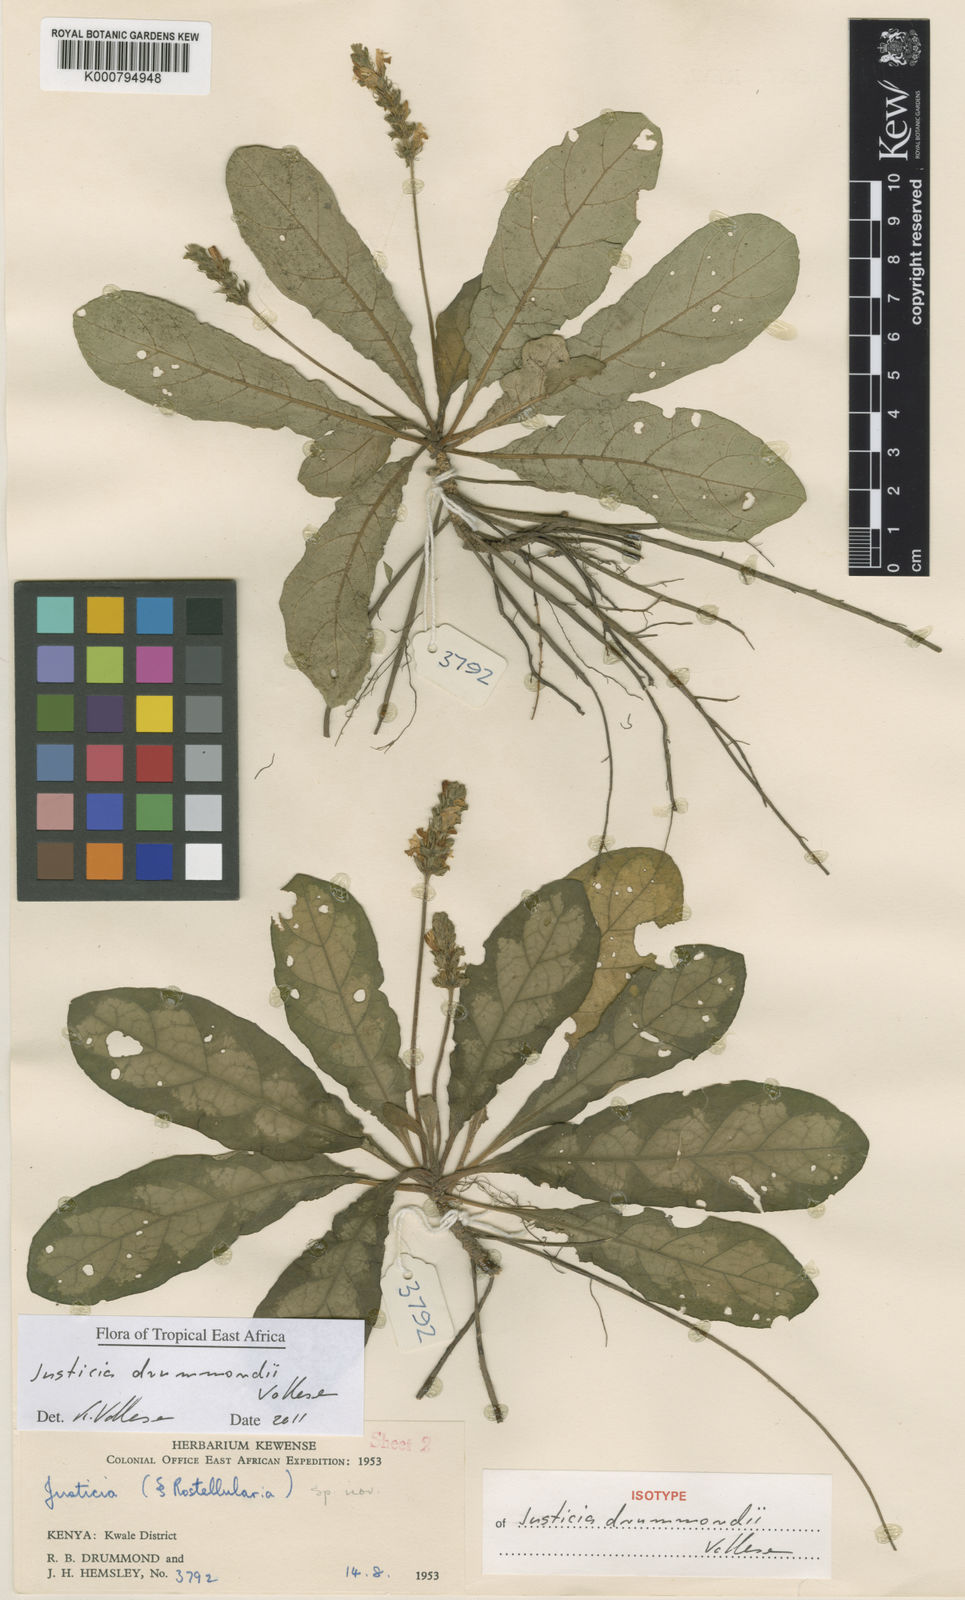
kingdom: Plantae
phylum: Tracheophyta
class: Magnoliopsida
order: Lamiales
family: Acanthaceae
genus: Justicia
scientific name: Justicia drummondii
